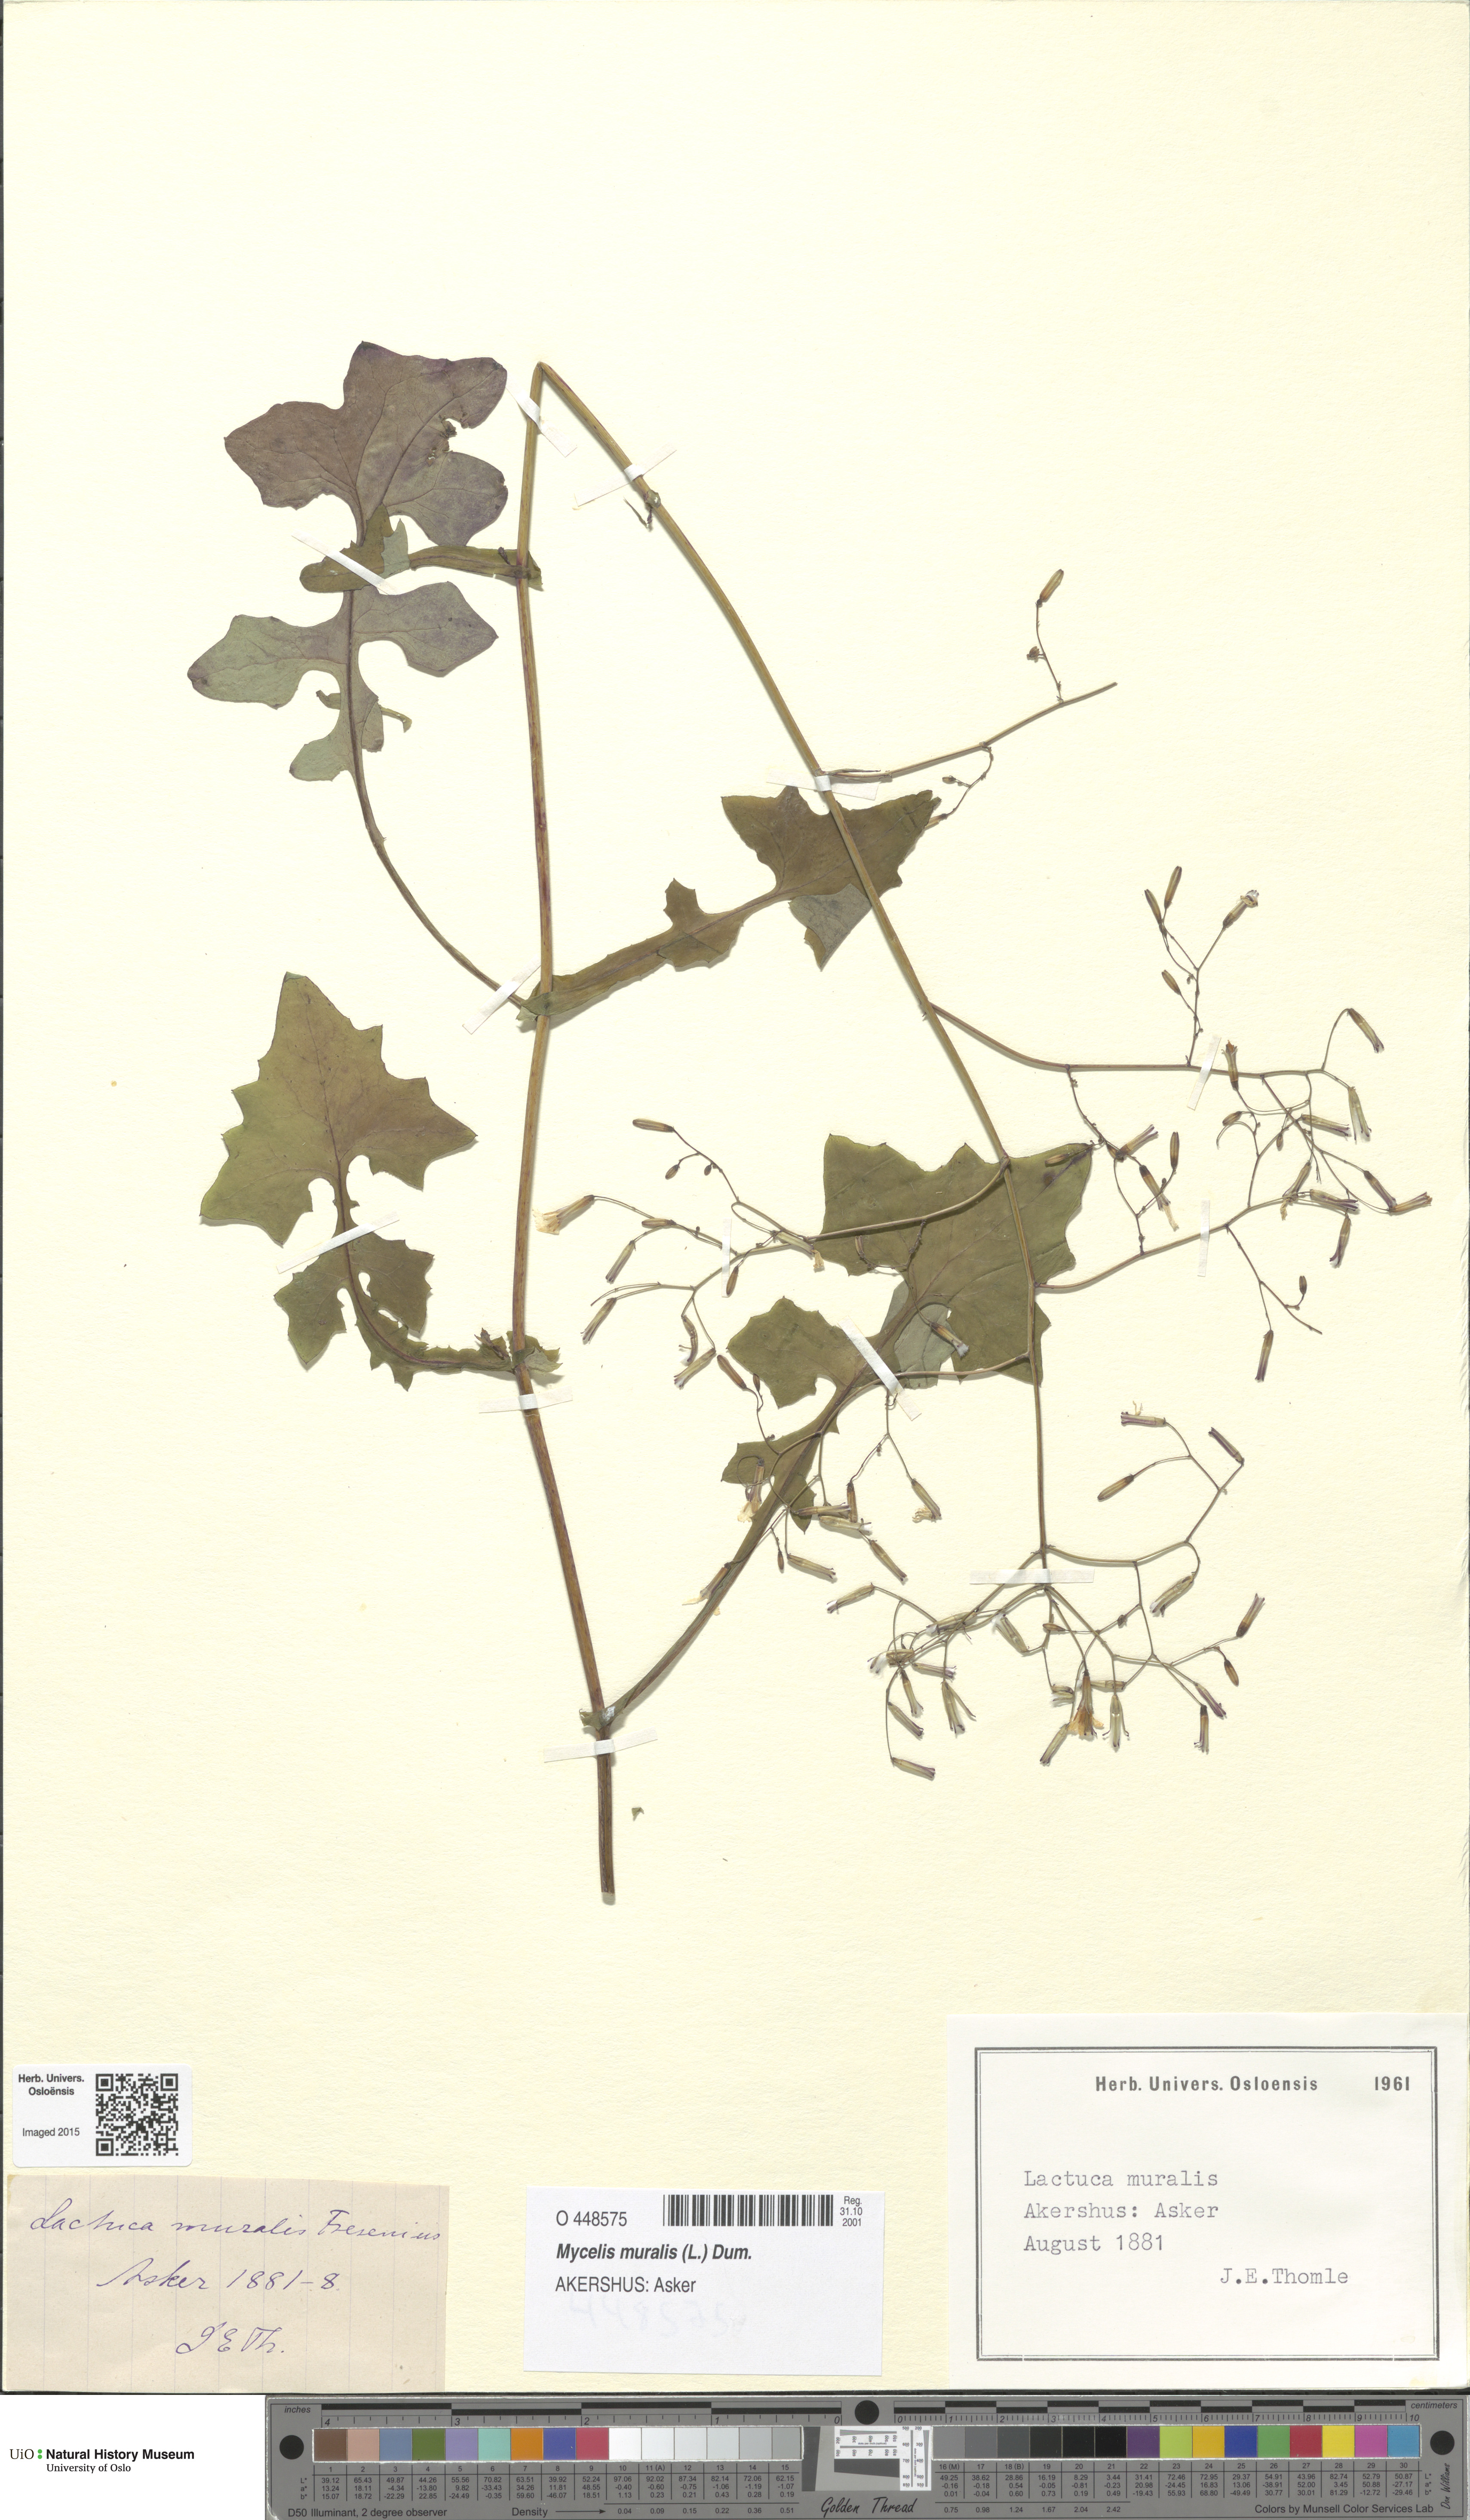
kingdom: Plantae
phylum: Tracheophyta
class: Magnoliopsida
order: Asterales
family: Asteraceae
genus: Mycelis
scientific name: Mycelis muralis
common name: Wall lettuce
